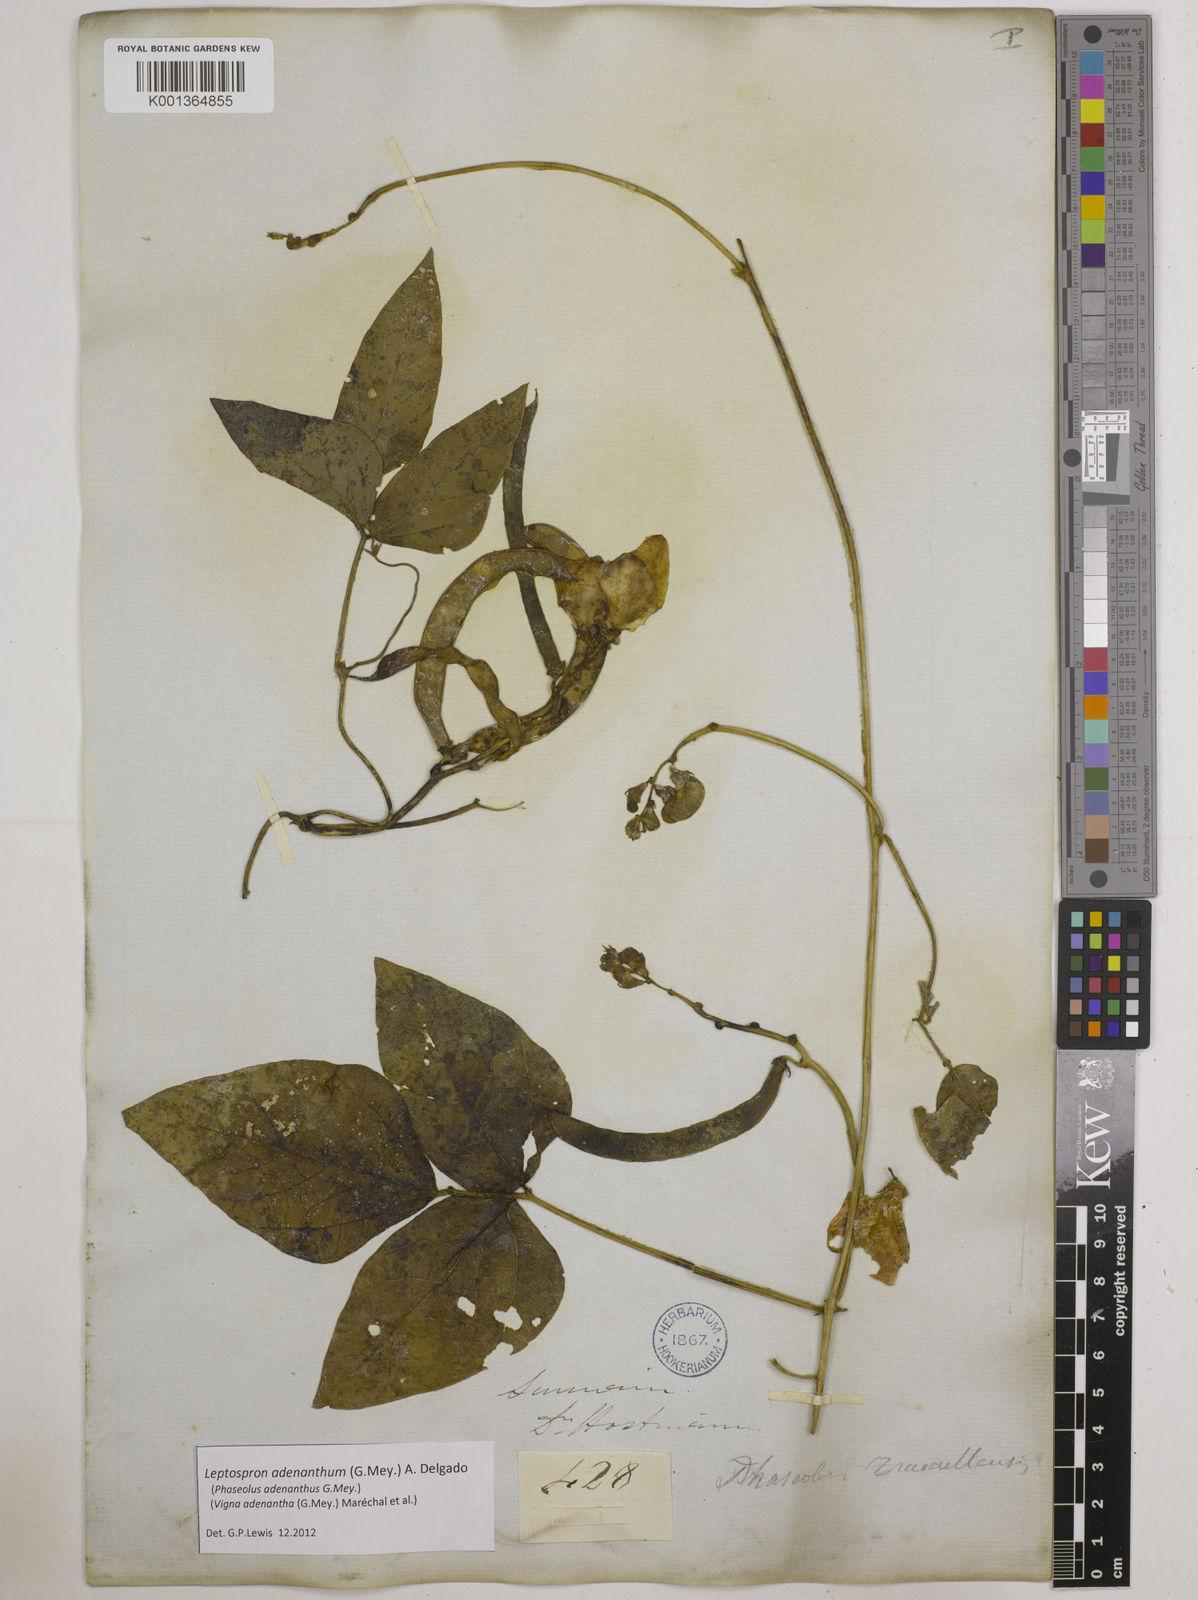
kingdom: Plantae
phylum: Tracheophyta
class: Magnoliopsida
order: Fabales
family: Fabaceae
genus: Leptospron
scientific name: Leptospron adenanthum
